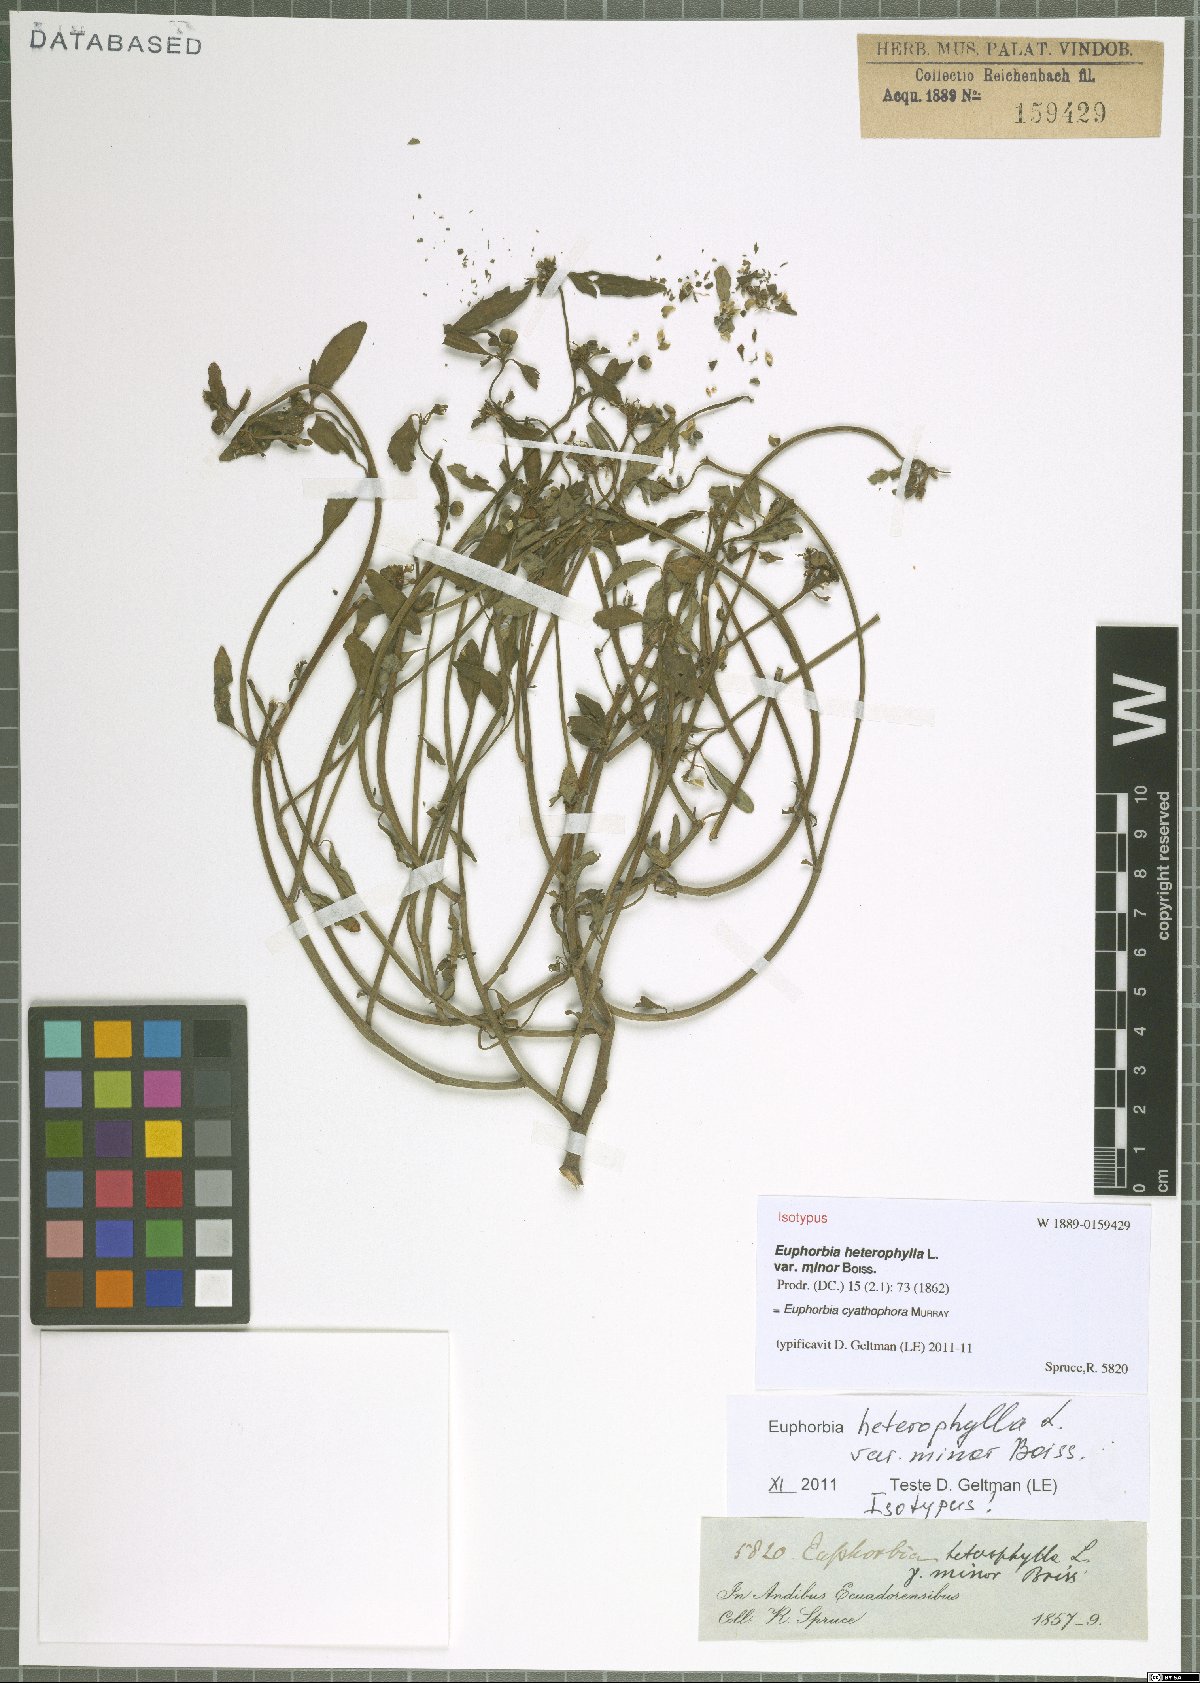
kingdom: Plantae
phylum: Tracheophyta
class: Magnoliopsida
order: Malpighiales
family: Euphorbiaceae
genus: Euphorbia
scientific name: Euphorbia heterophylla
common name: Mexican fireplant
